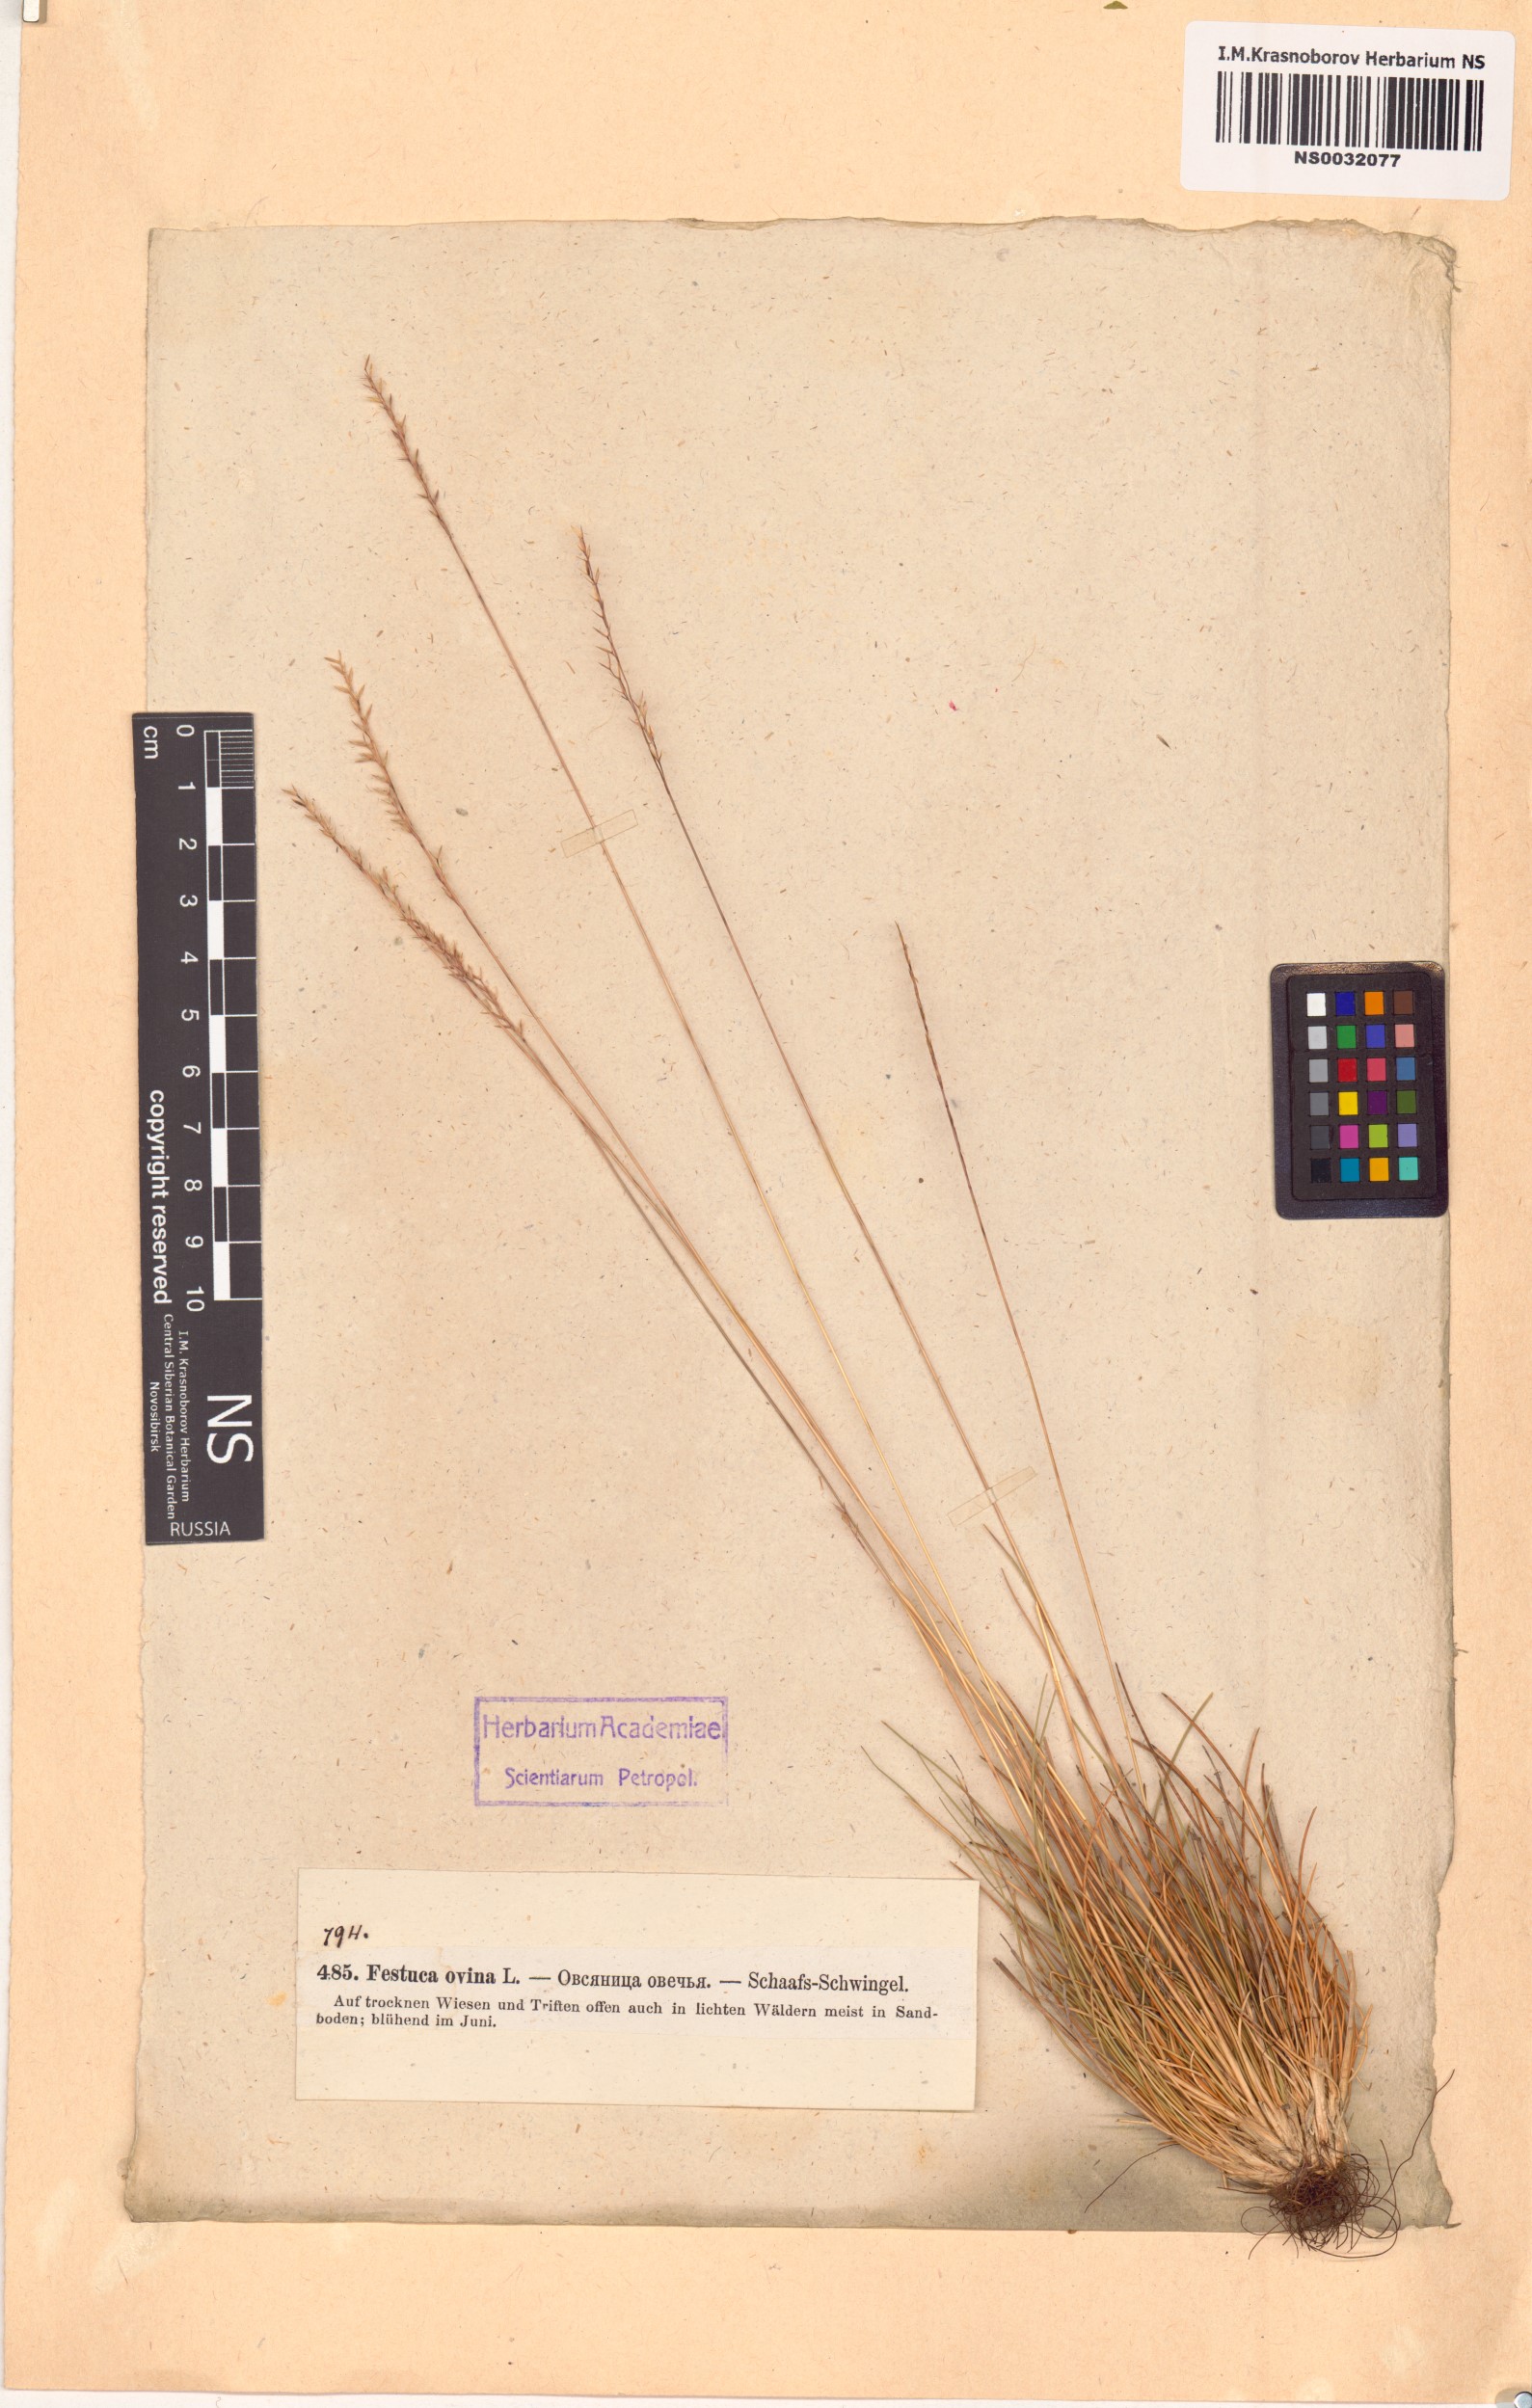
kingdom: Plantae
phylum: Tracheophyta
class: Liliopsida
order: Poales
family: Poaceae
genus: Festuca
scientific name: Festuca ovina
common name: Sheep fescue
